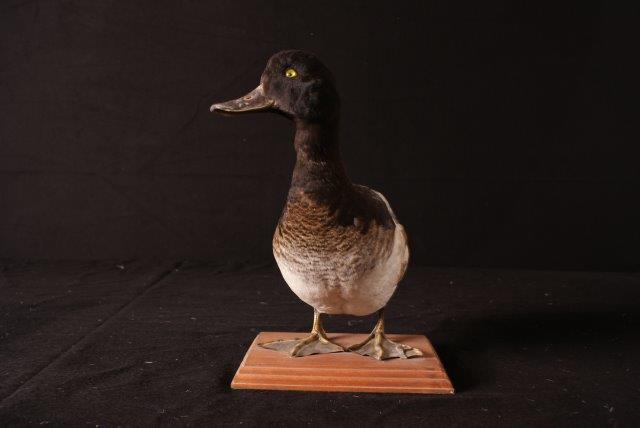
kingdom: Animalia
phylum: Chordata
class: Aves
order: Anseriformes
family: Anatidae
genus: Aythya
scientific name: Aythya marila
